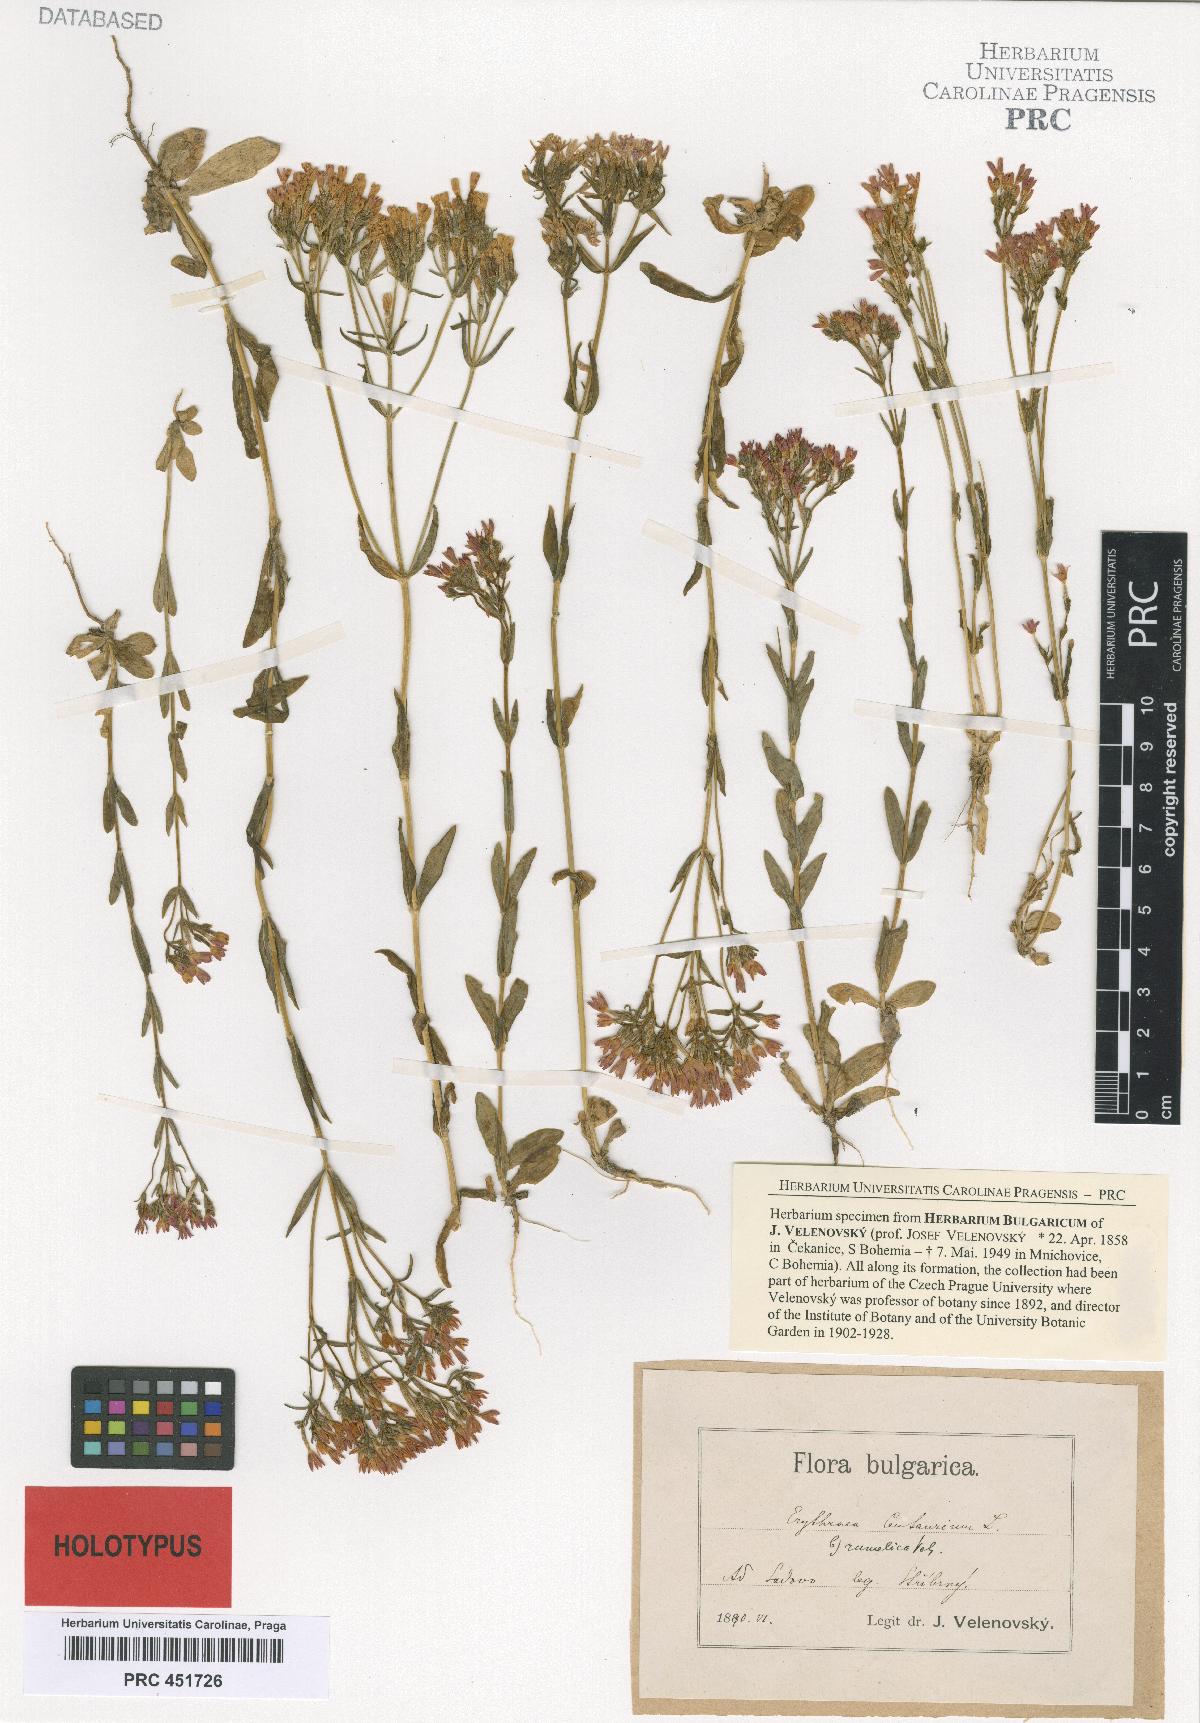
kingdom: Plantae
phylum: Tracheophyta
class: Magnoliopsida
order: Gentianales
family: Gentianaceae
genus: Centaurium
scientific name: Centaurium erythraea
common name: Common centaury
